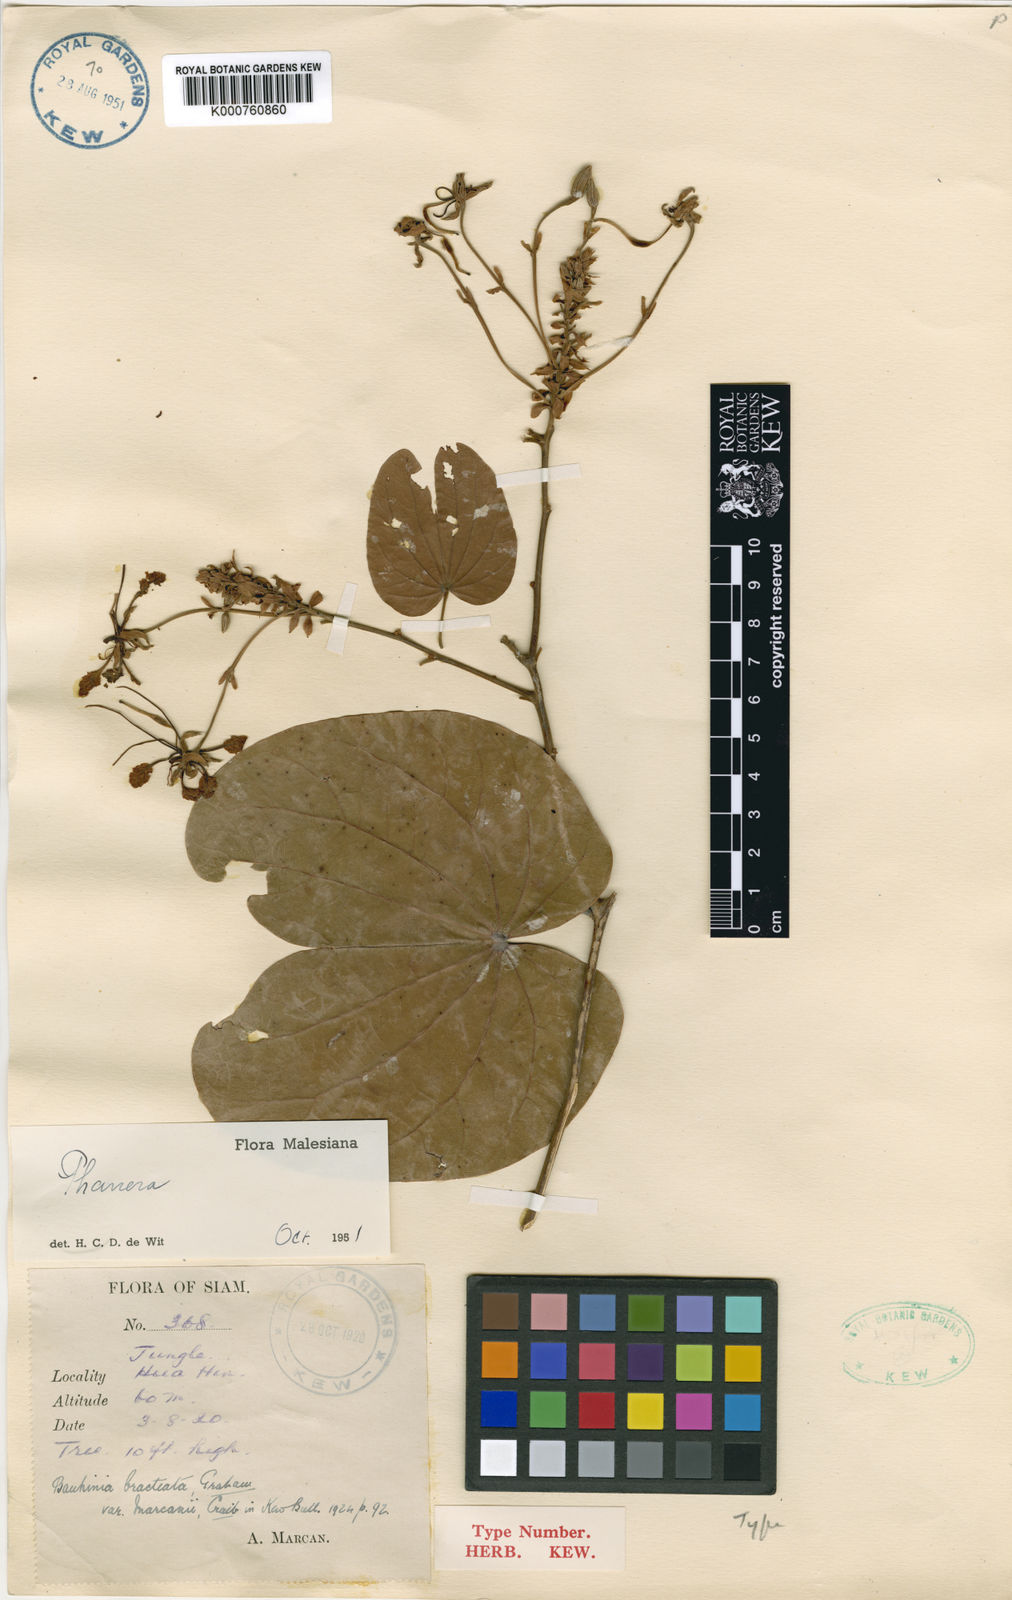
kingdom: Plantae
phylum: Tracheophyta
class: Magnoliopsida
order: Fabales
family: Fabaceae
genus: Phanera
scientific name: Phanera bracteata
